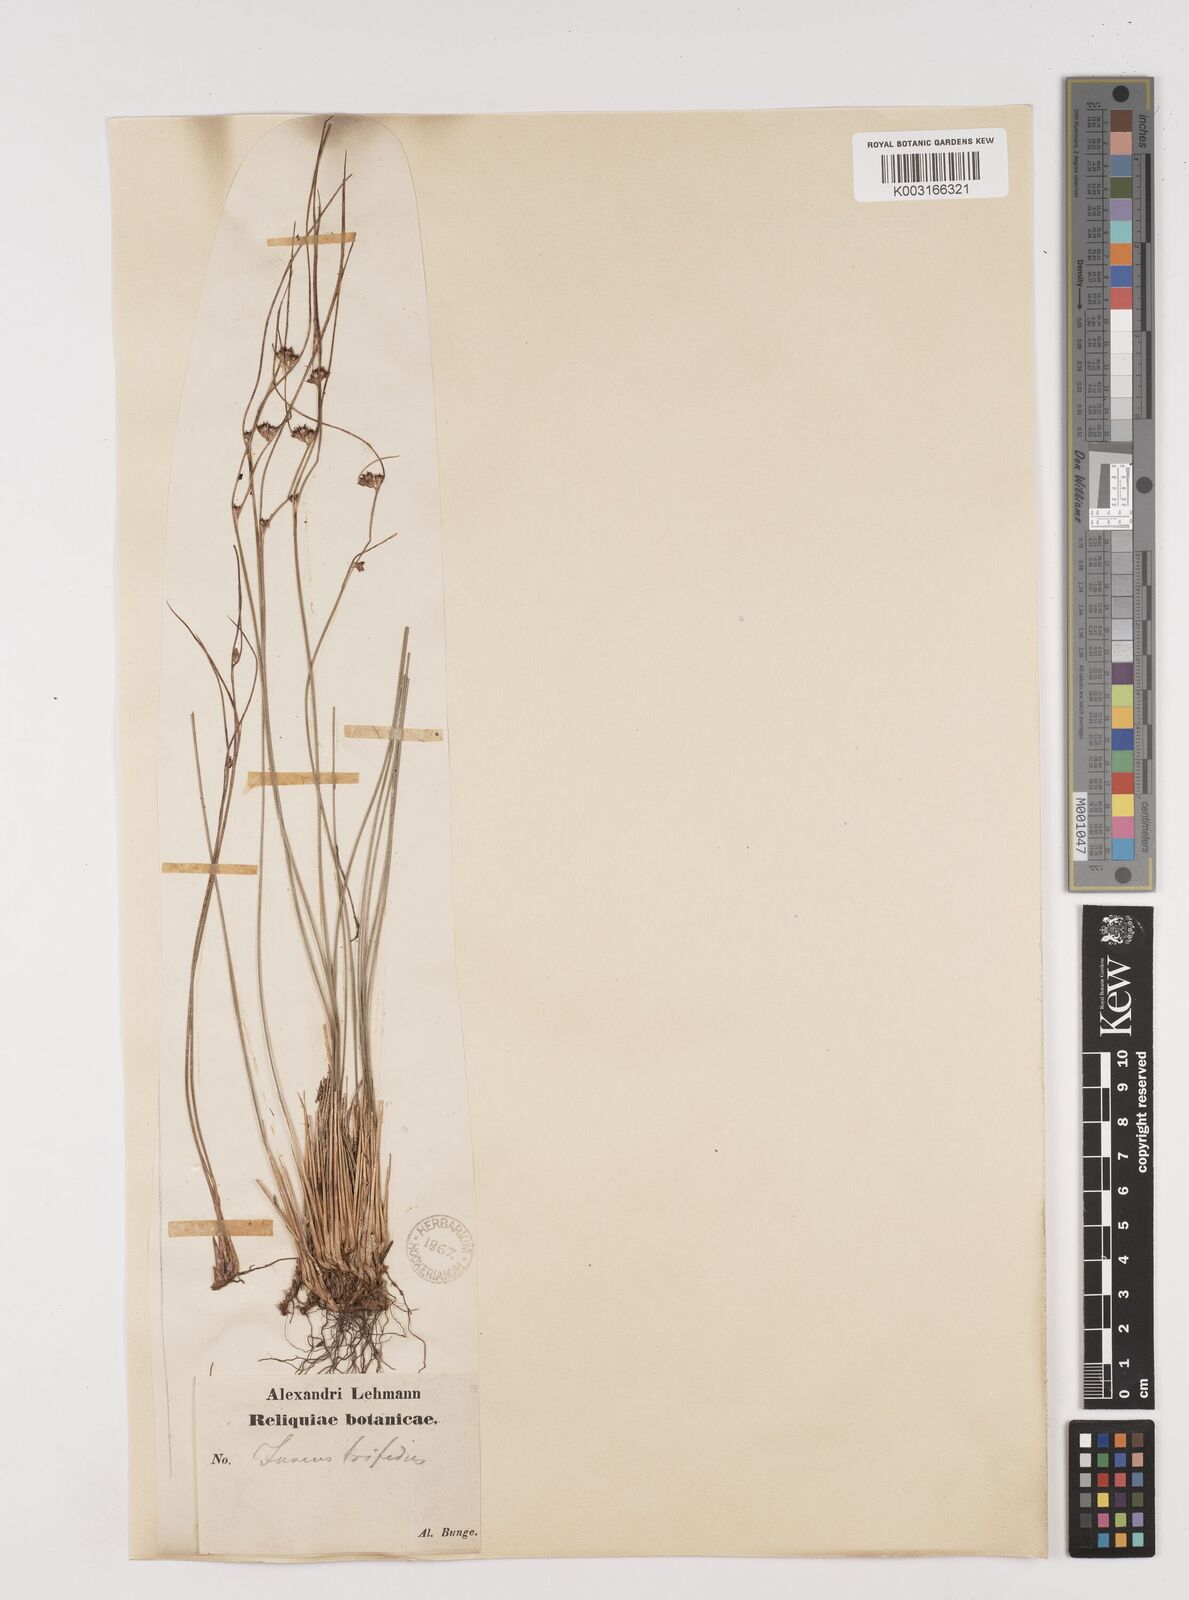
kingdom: Plantae
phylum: Tracheophyta
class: Liliopsida
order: Poales
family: Juncaceae
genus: Oreojuncus
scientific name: Oreojuncus trifidus
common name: Highland rush
